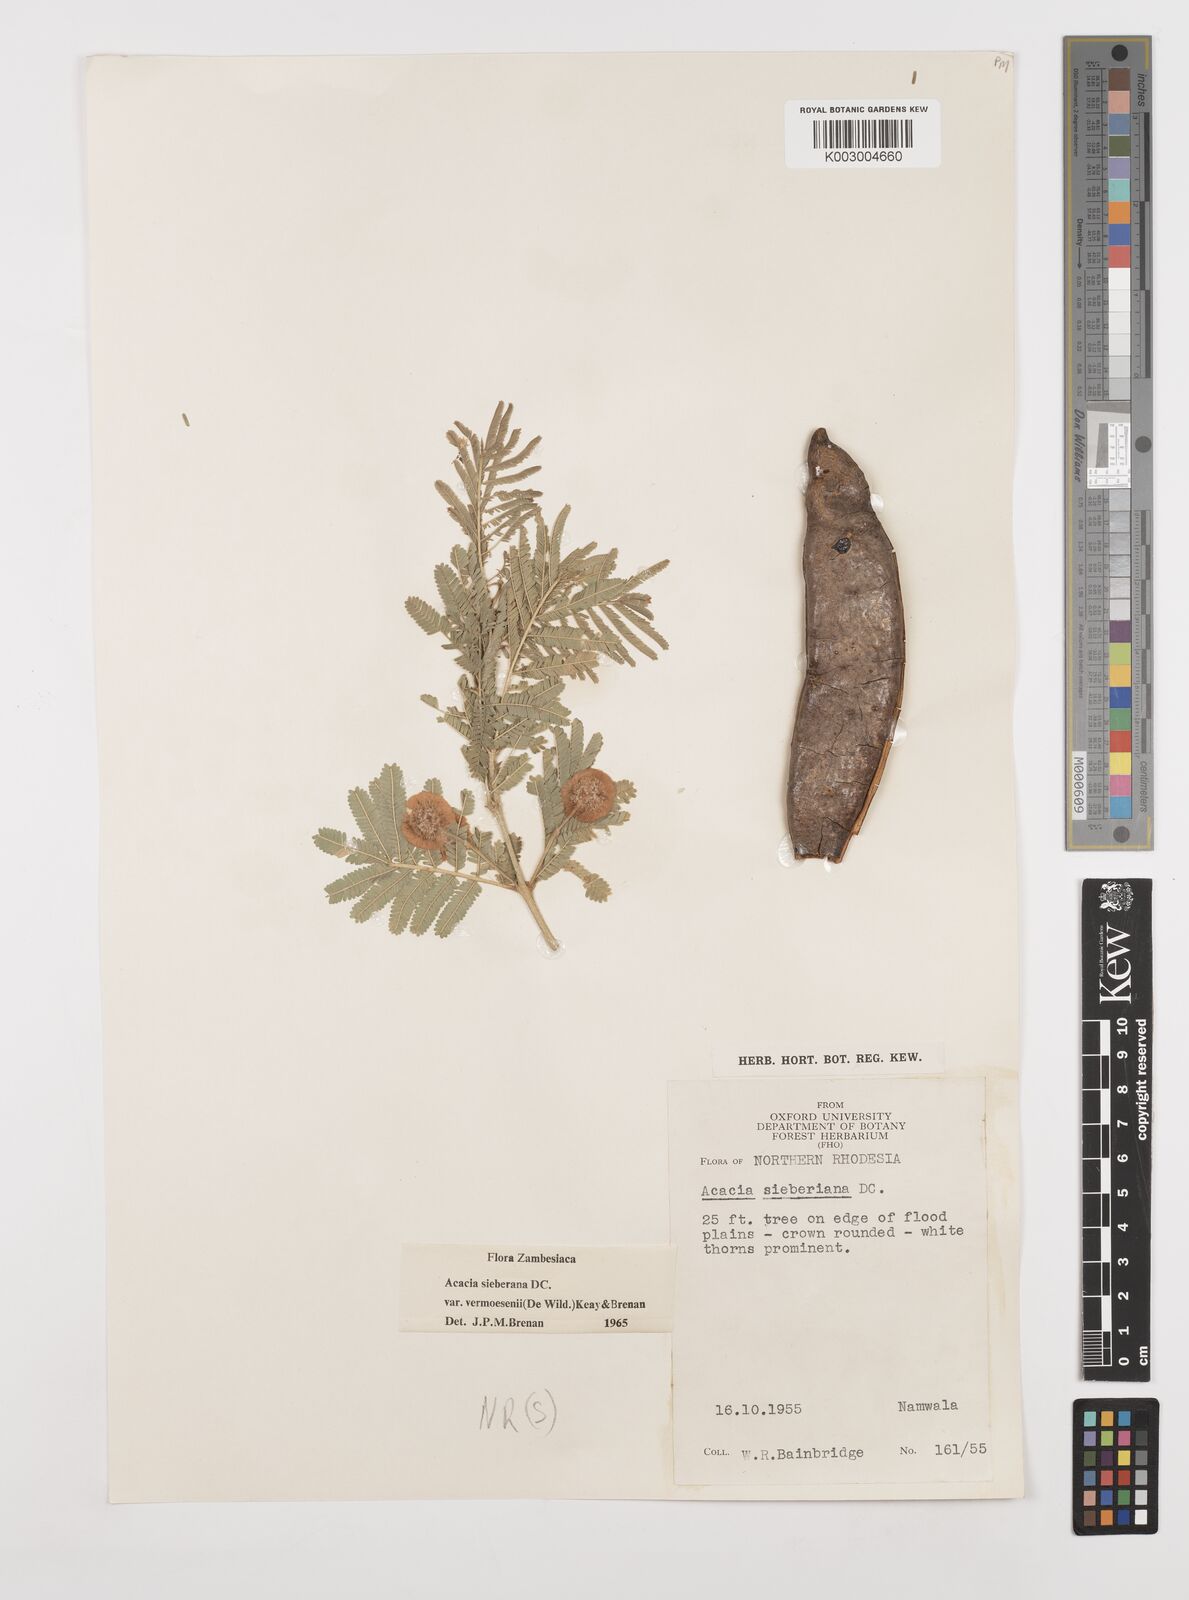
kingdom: Plantae
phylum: Tracheophyta
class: Magnoliopsida
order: Fabales
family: Fabaceae
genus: Vachellia
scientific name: Vachellia sieberiana
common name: Flat-topped thorn
